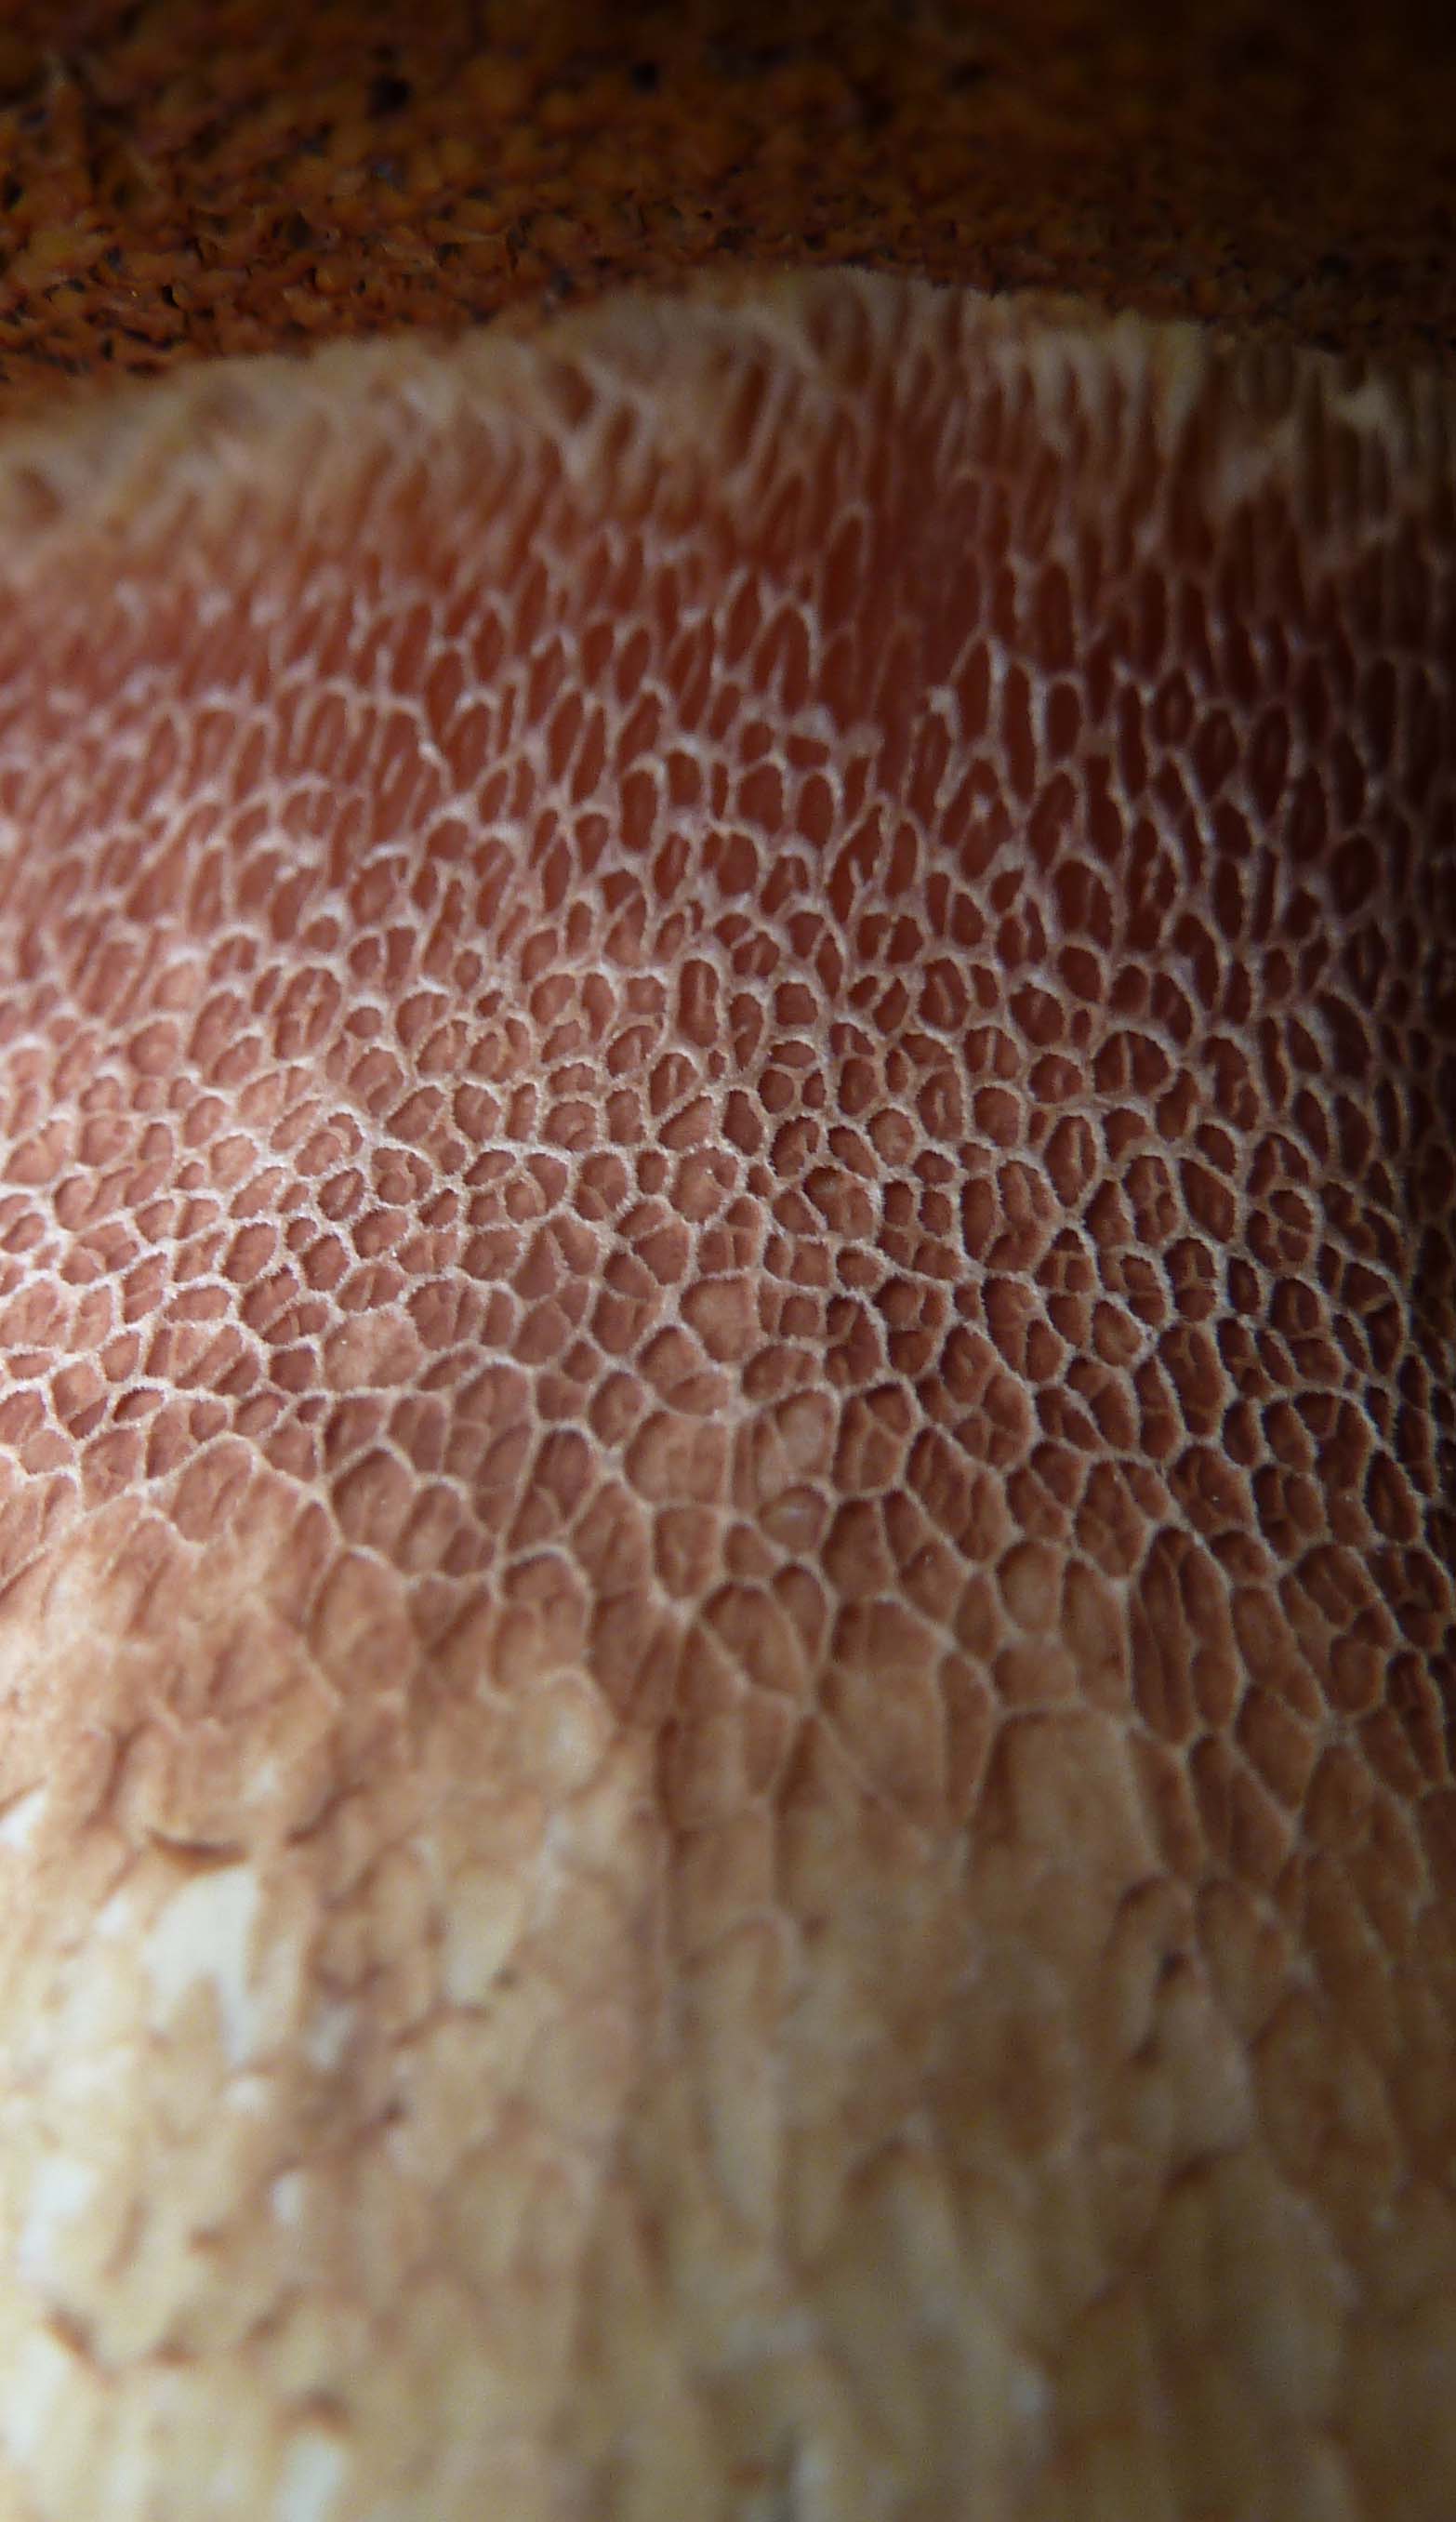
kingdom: Fungi
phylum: Basidiomycota
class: Agaricomycetes
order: Boletales
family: Boletaceae
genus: Boletus
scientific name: Boletus pinophilus
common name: rødbrun rørhat
